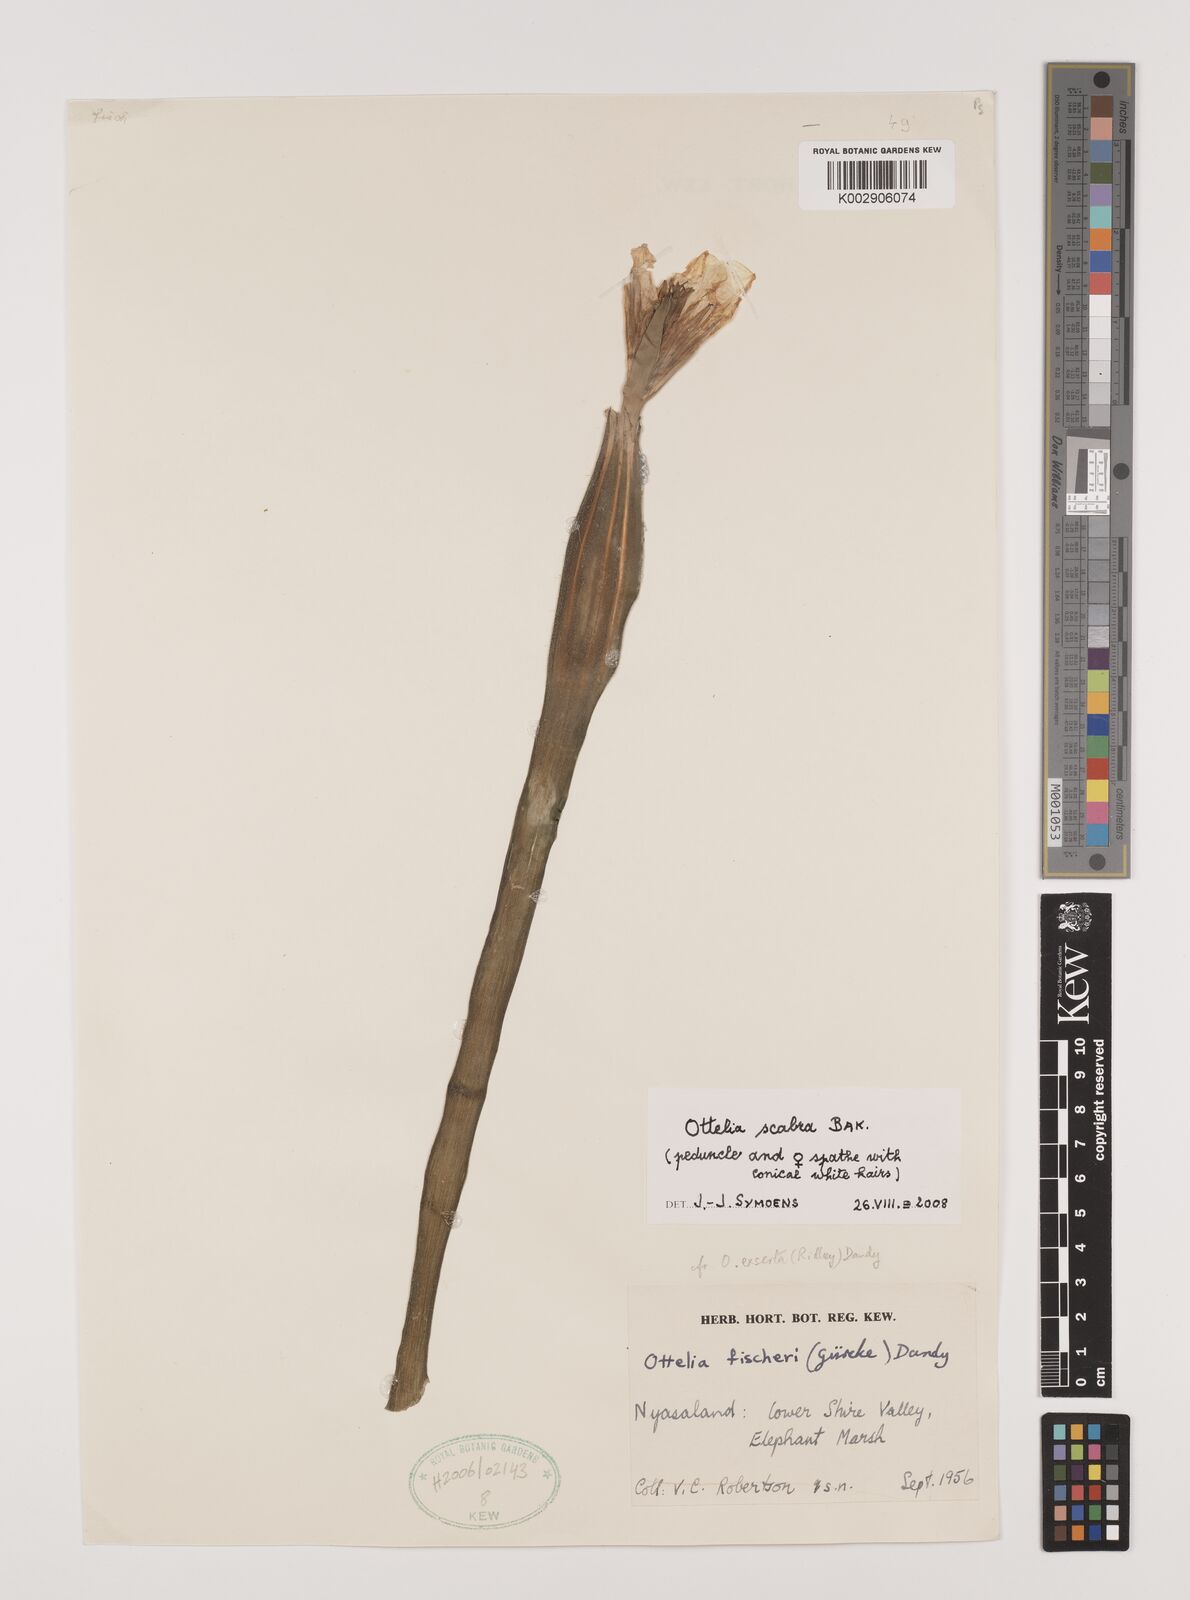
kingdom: Plantae
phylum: Tracheophyta
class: Liliopsida
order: Alismatales
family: Hydrocharitaceae
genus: Ottelia
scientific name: Ottelia scabra
